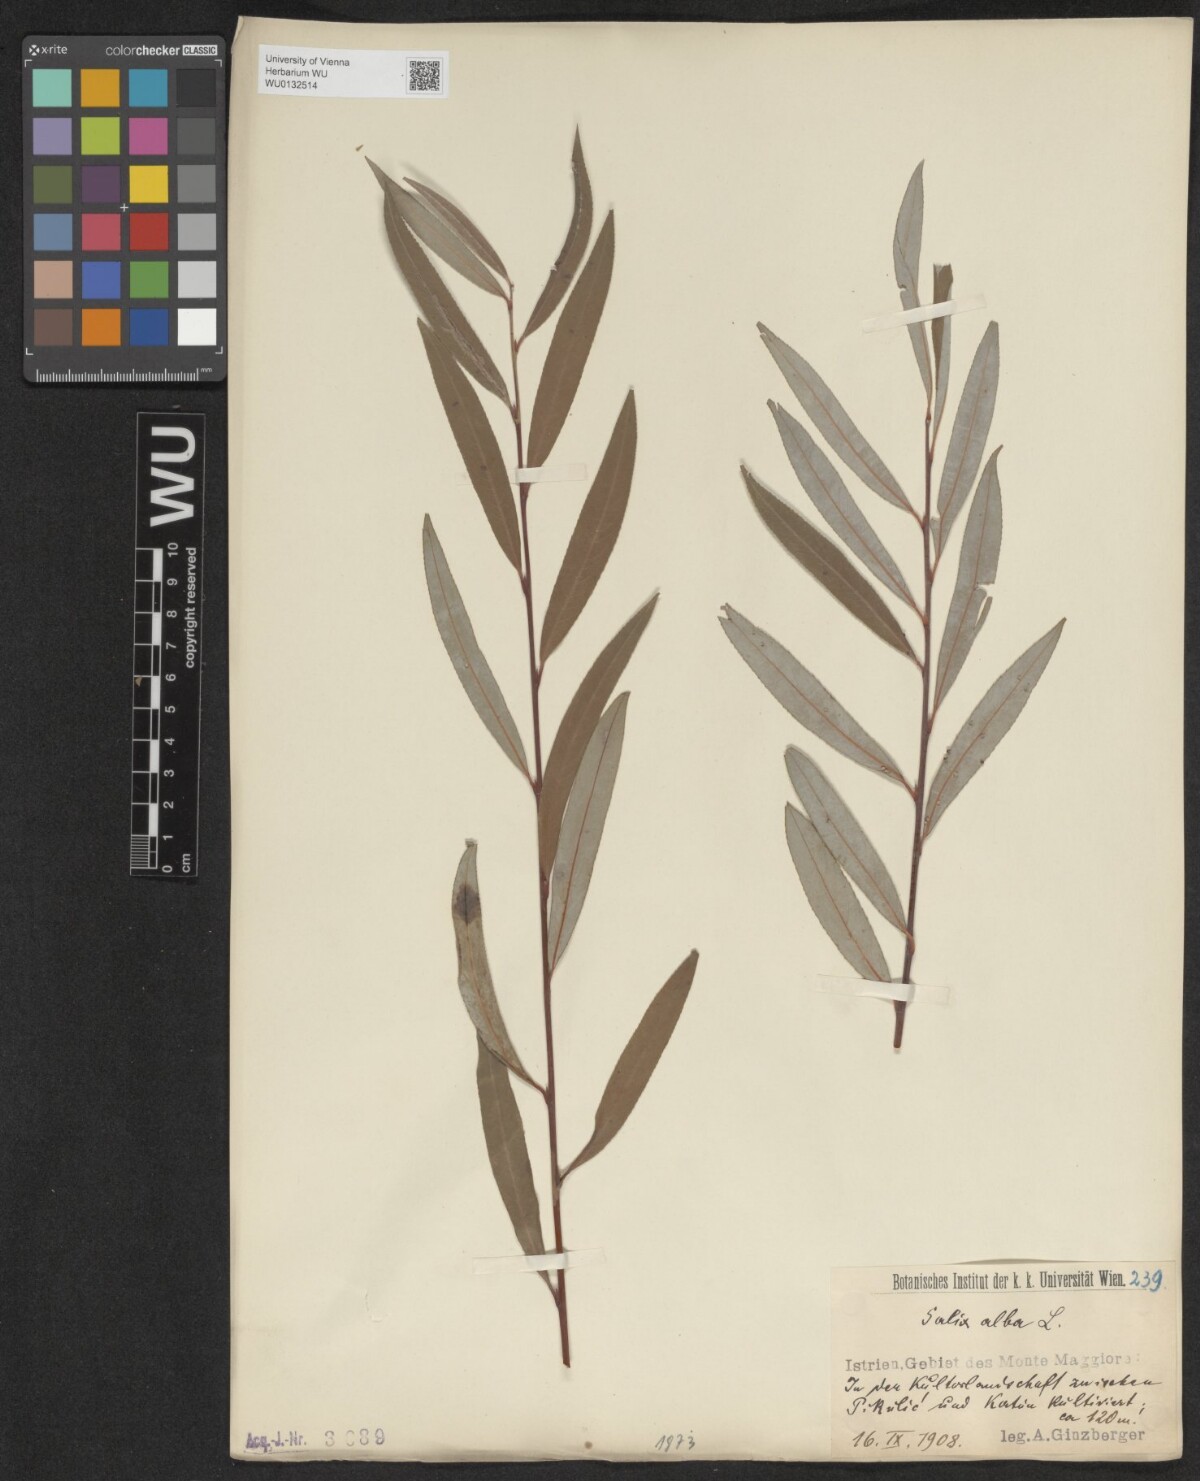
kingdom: Plantae
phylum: Tracheophyta
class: Magnoliopsida
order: Malpighiales
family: Salicaceae
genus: Salix
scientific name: Salix alba
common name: White willow
